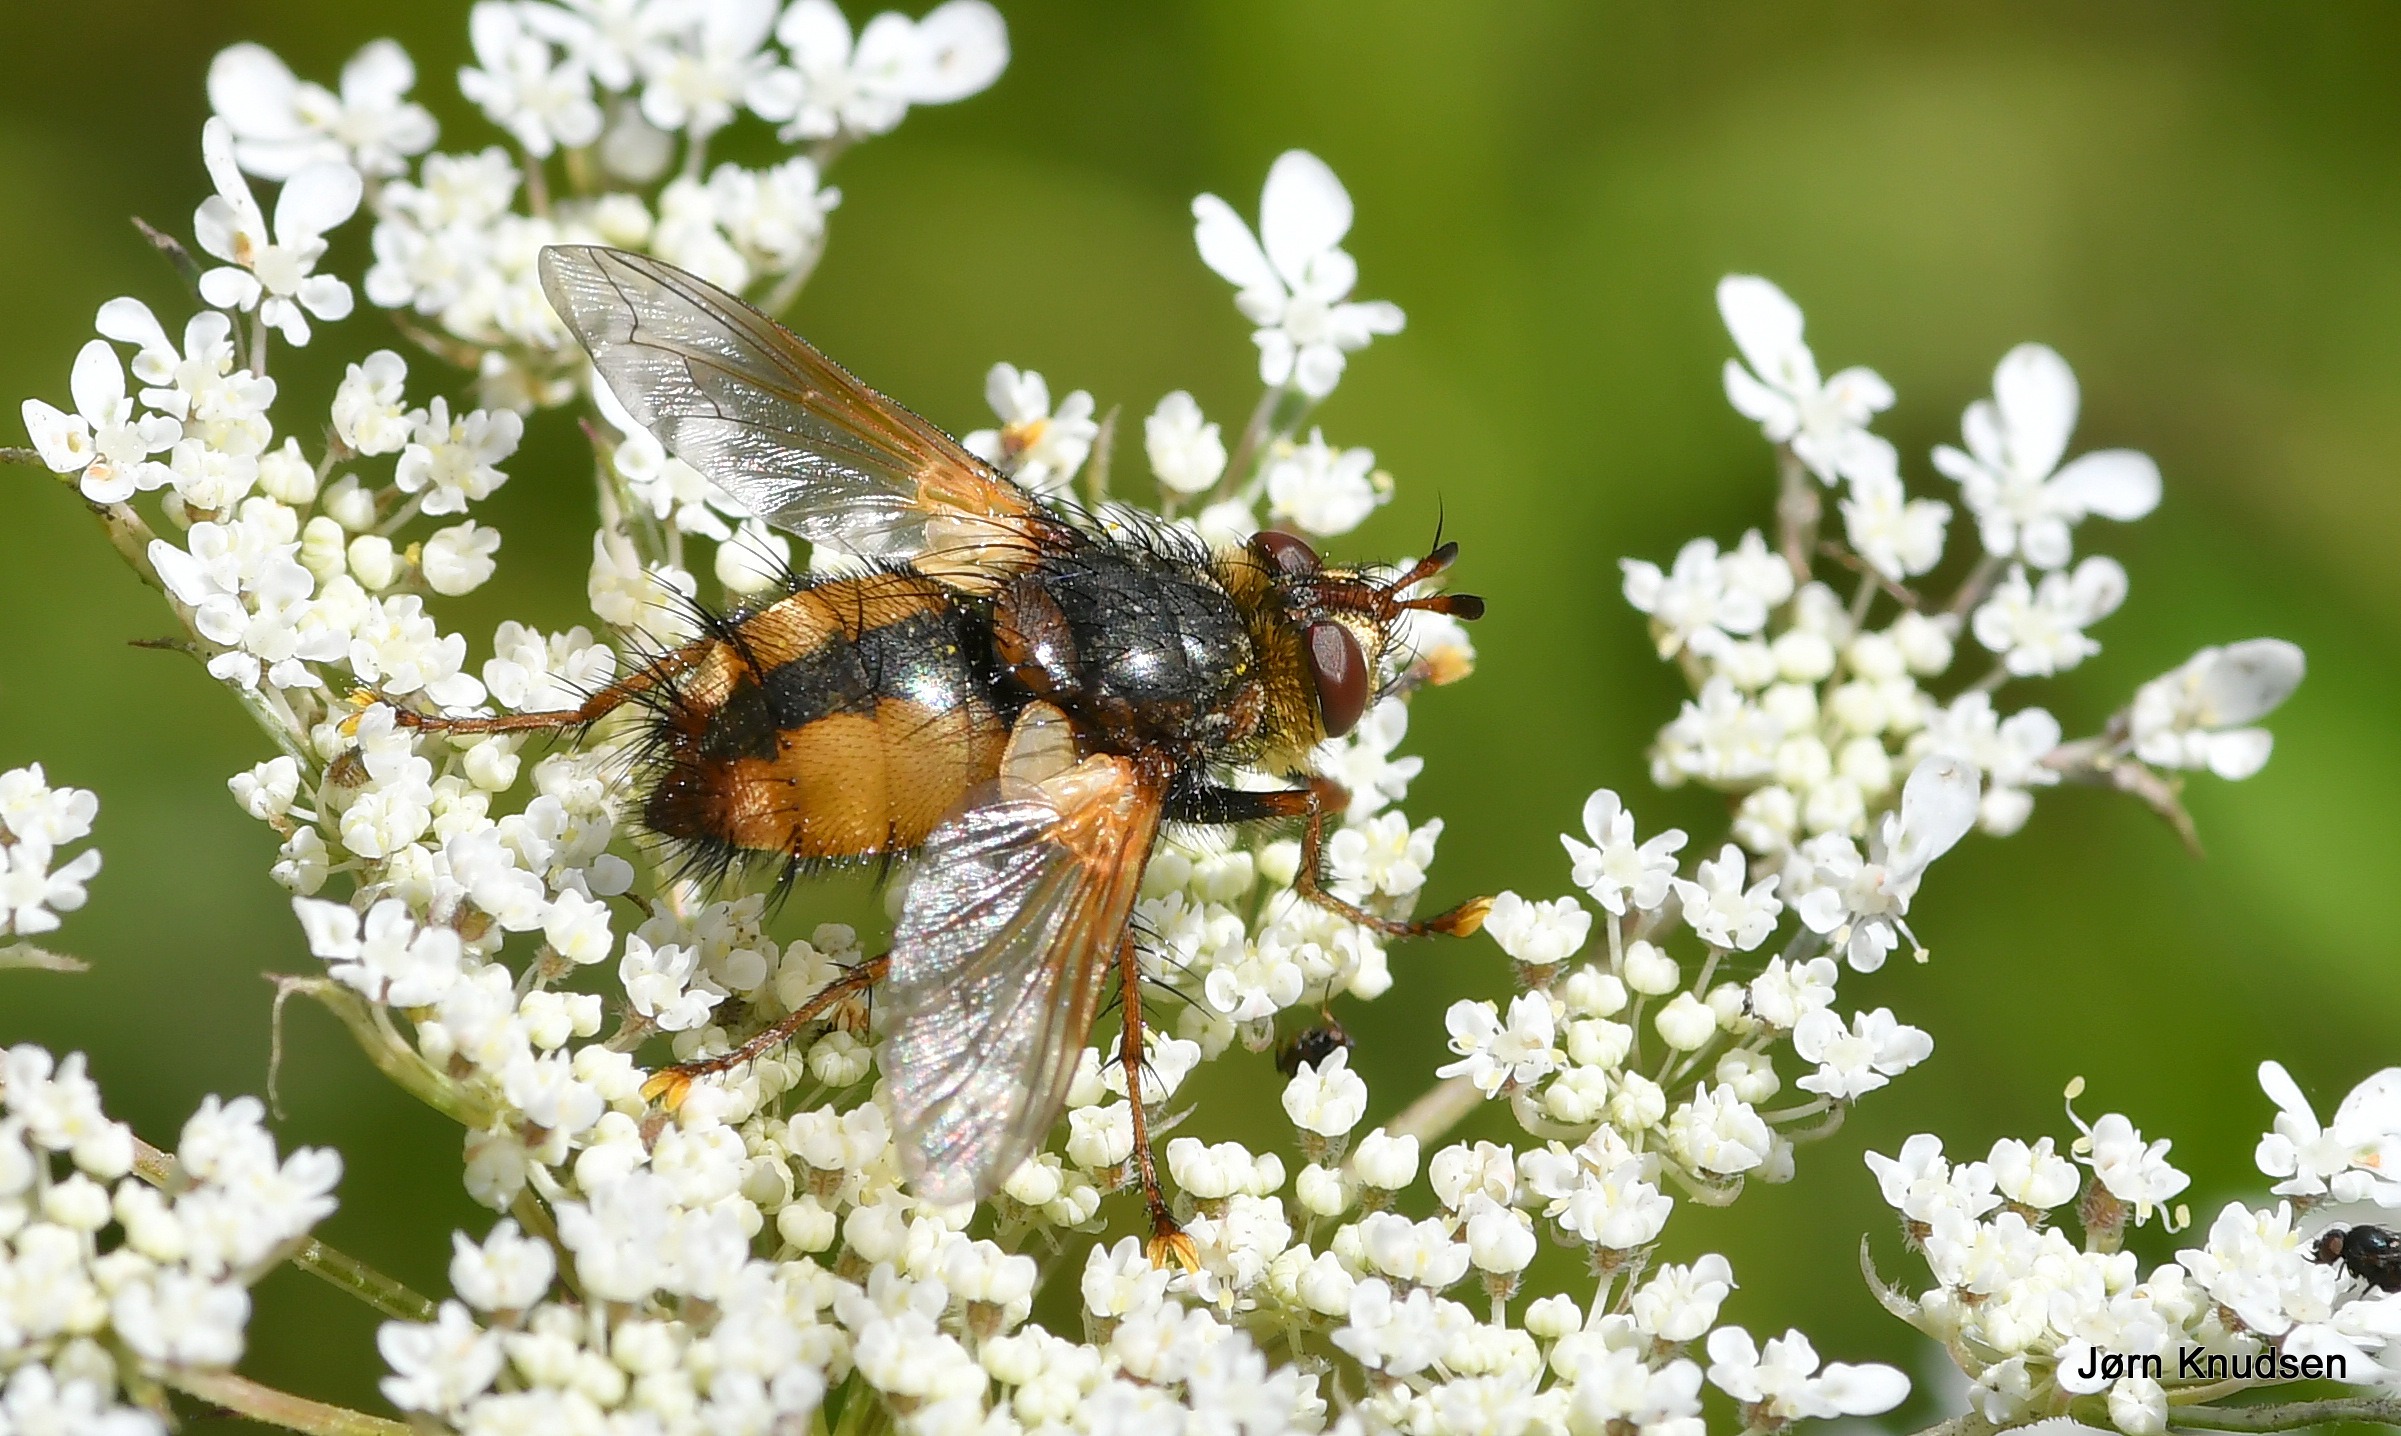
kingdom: Animalia
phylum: Arthropoda
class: Insecta
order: Diptera
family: Tachinidae
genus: Tachina
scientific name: Tachina fera
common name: Mellemfluen oskar
